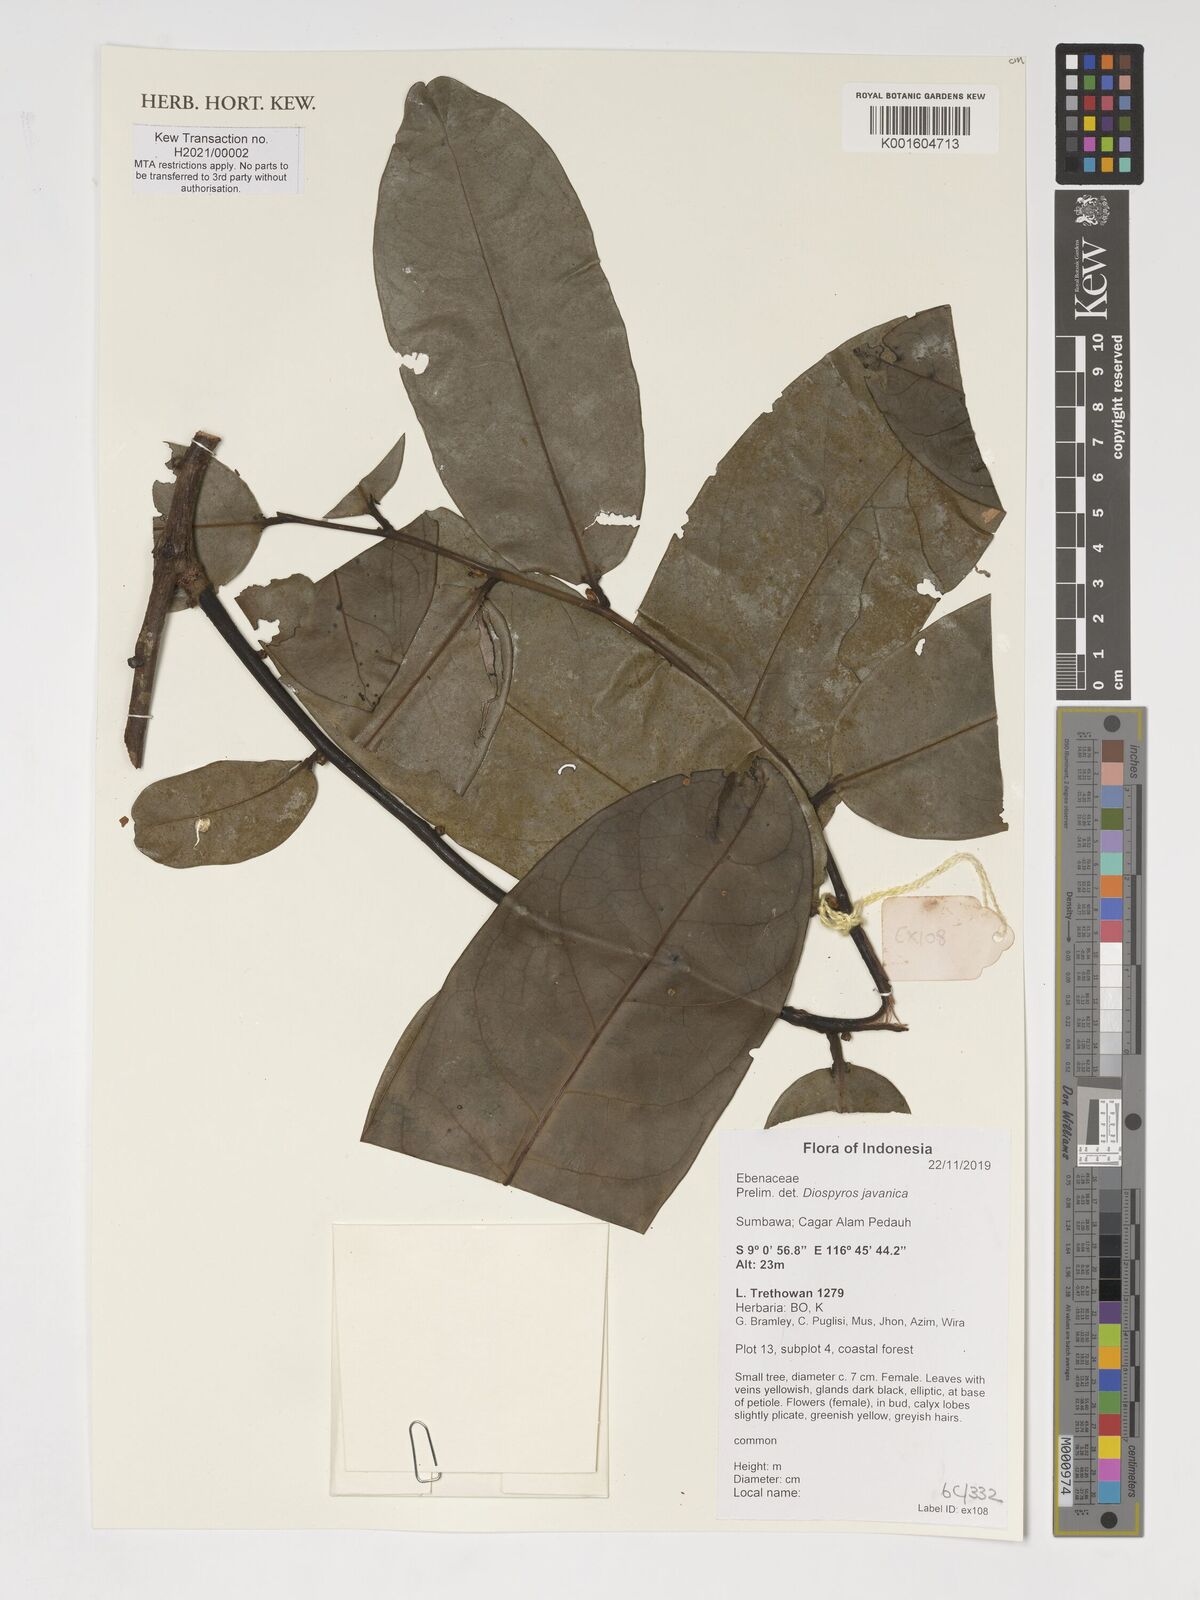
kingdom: Plantae
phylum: Tracheophyta
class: Magnoliopsida
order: Ericales
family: Ebenaceae
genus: Diospyros
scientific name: Diospyros javanica
